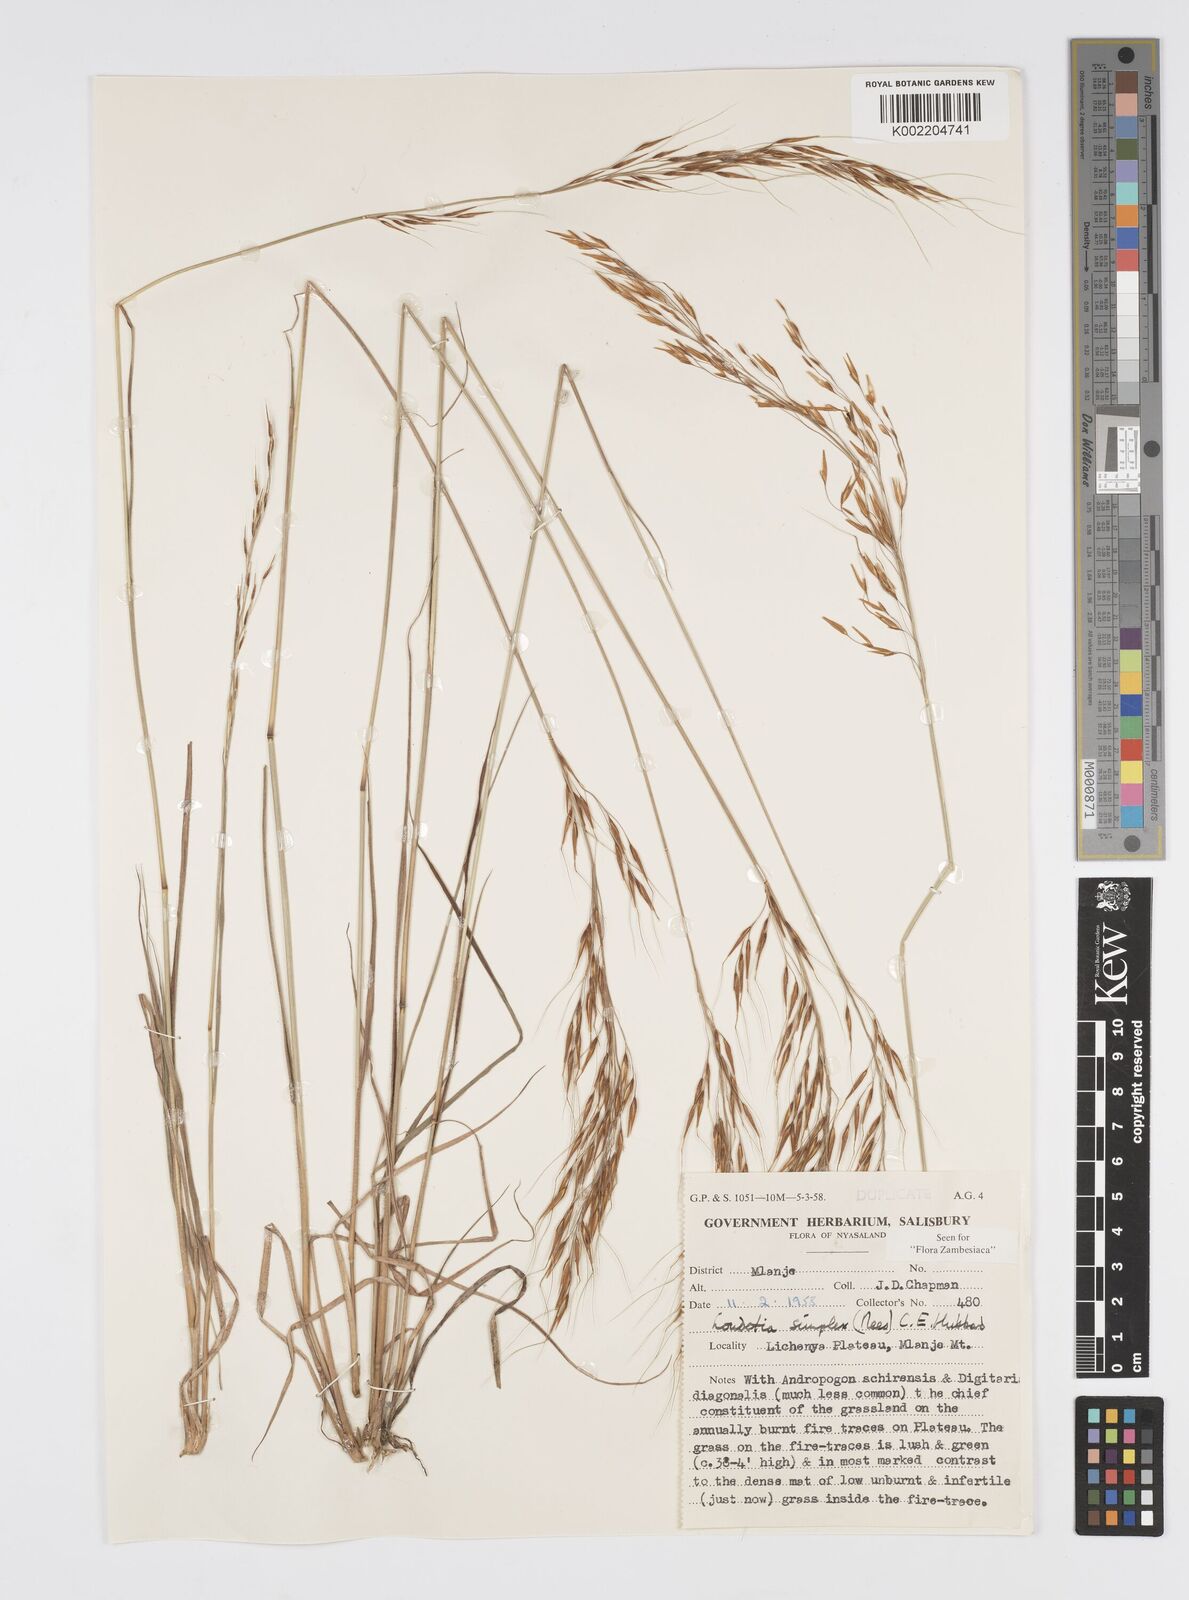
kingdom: Plantae
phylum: Tracheophyta
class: Liliopsida
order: Poales
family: Poaceae
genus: Loudetia
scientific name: Loudetia simplex
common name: Common russet grass
